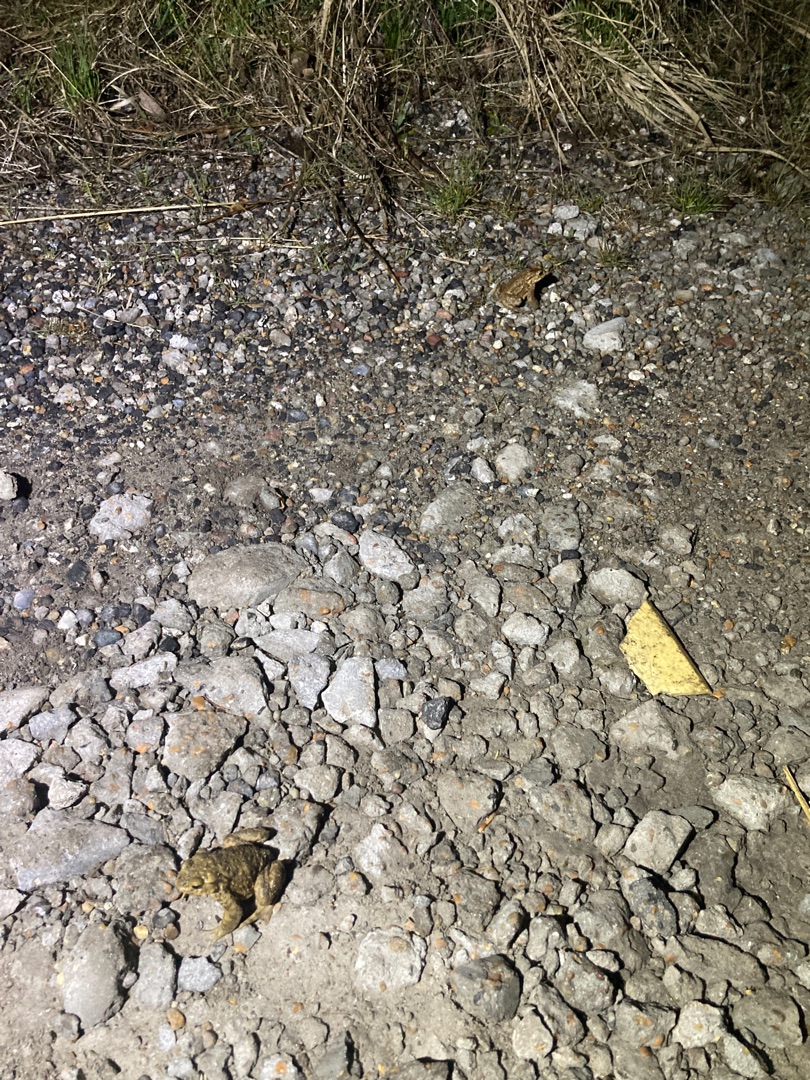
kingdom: Animalia
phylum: Chordata
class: Amphibia
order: Anura
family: Bufonidae
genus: Bufo
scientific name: Bufo bufo
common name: Skrubtudse
